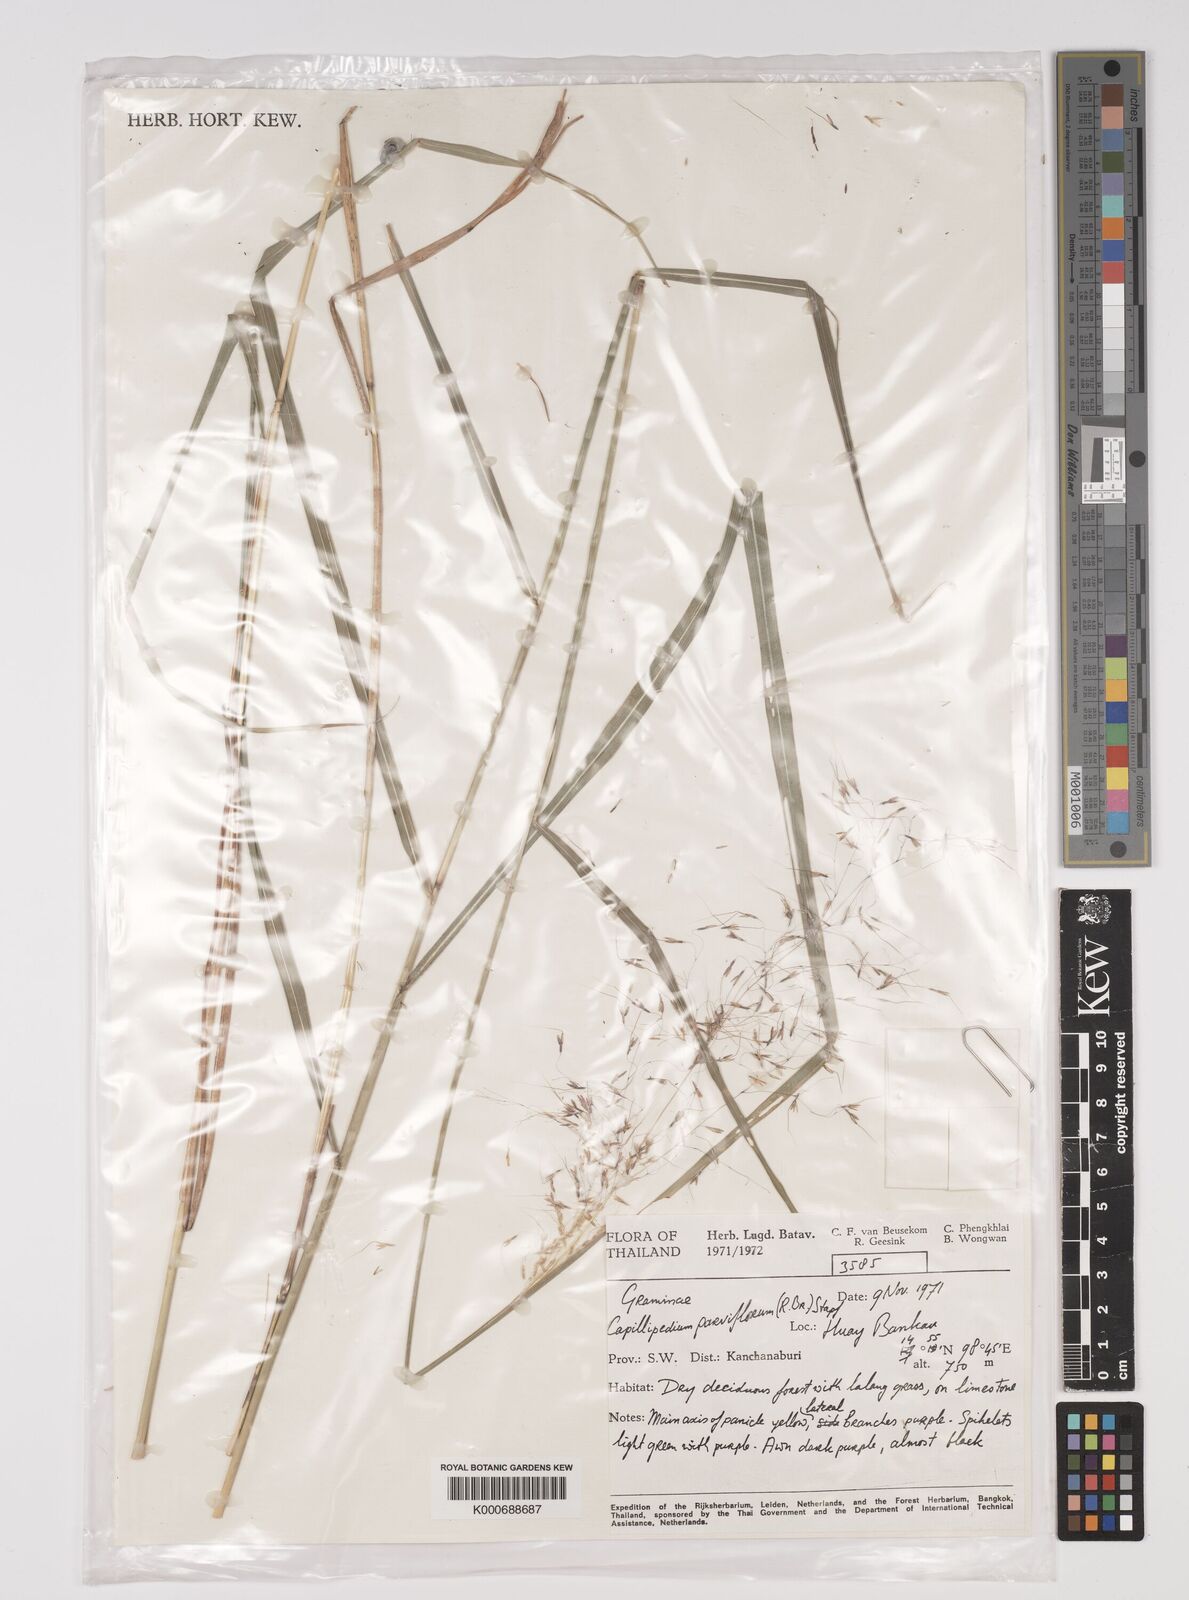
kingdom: Plantae
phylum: Tracheophyta
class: Liliopsida
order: Poales
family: Poaceae
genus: Capillipedium
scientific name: Capillipedium parviflorum
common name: Golden-beard
